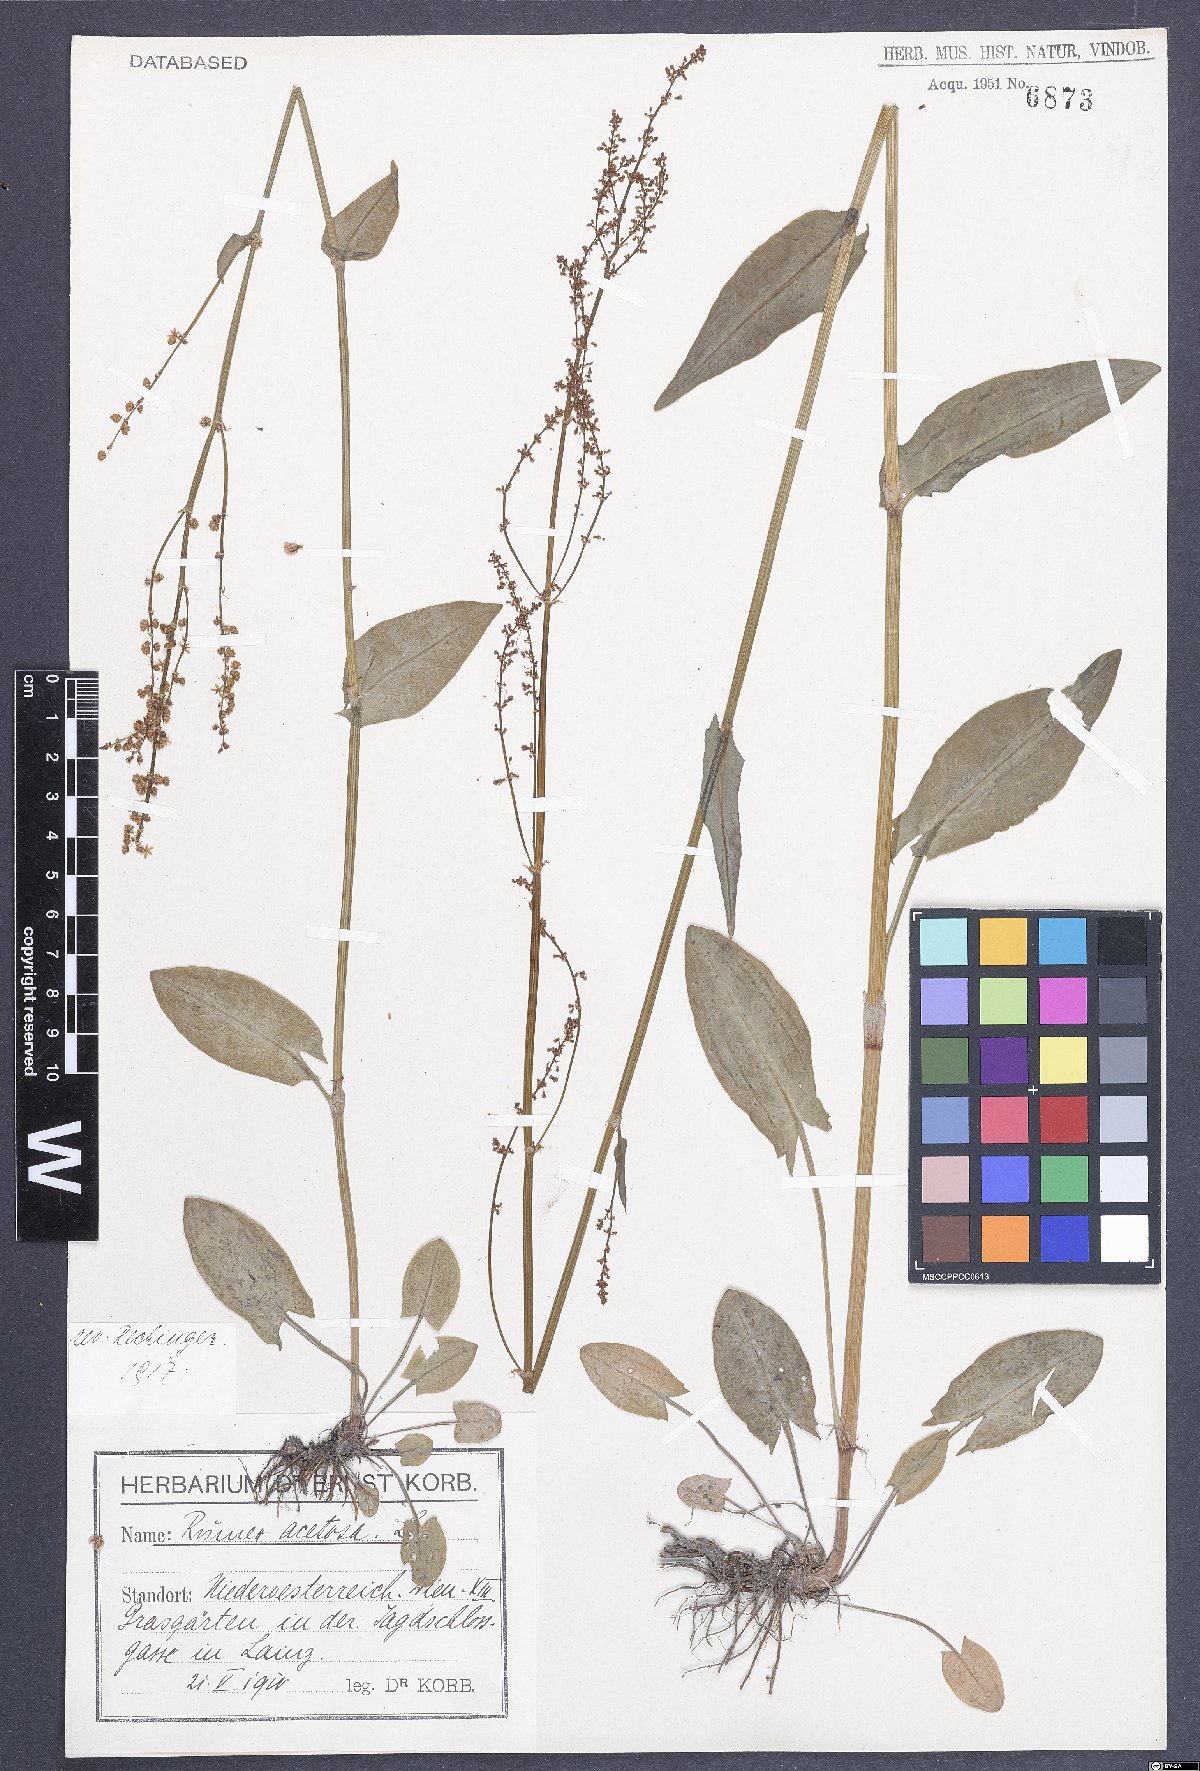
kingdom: Plantae
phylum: Tracheophyta
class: Magnoliopsida
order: Caryophyllales
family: Polygonaceae
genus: Rumex
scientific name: Rumex acetosa
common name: Garden sorrel
